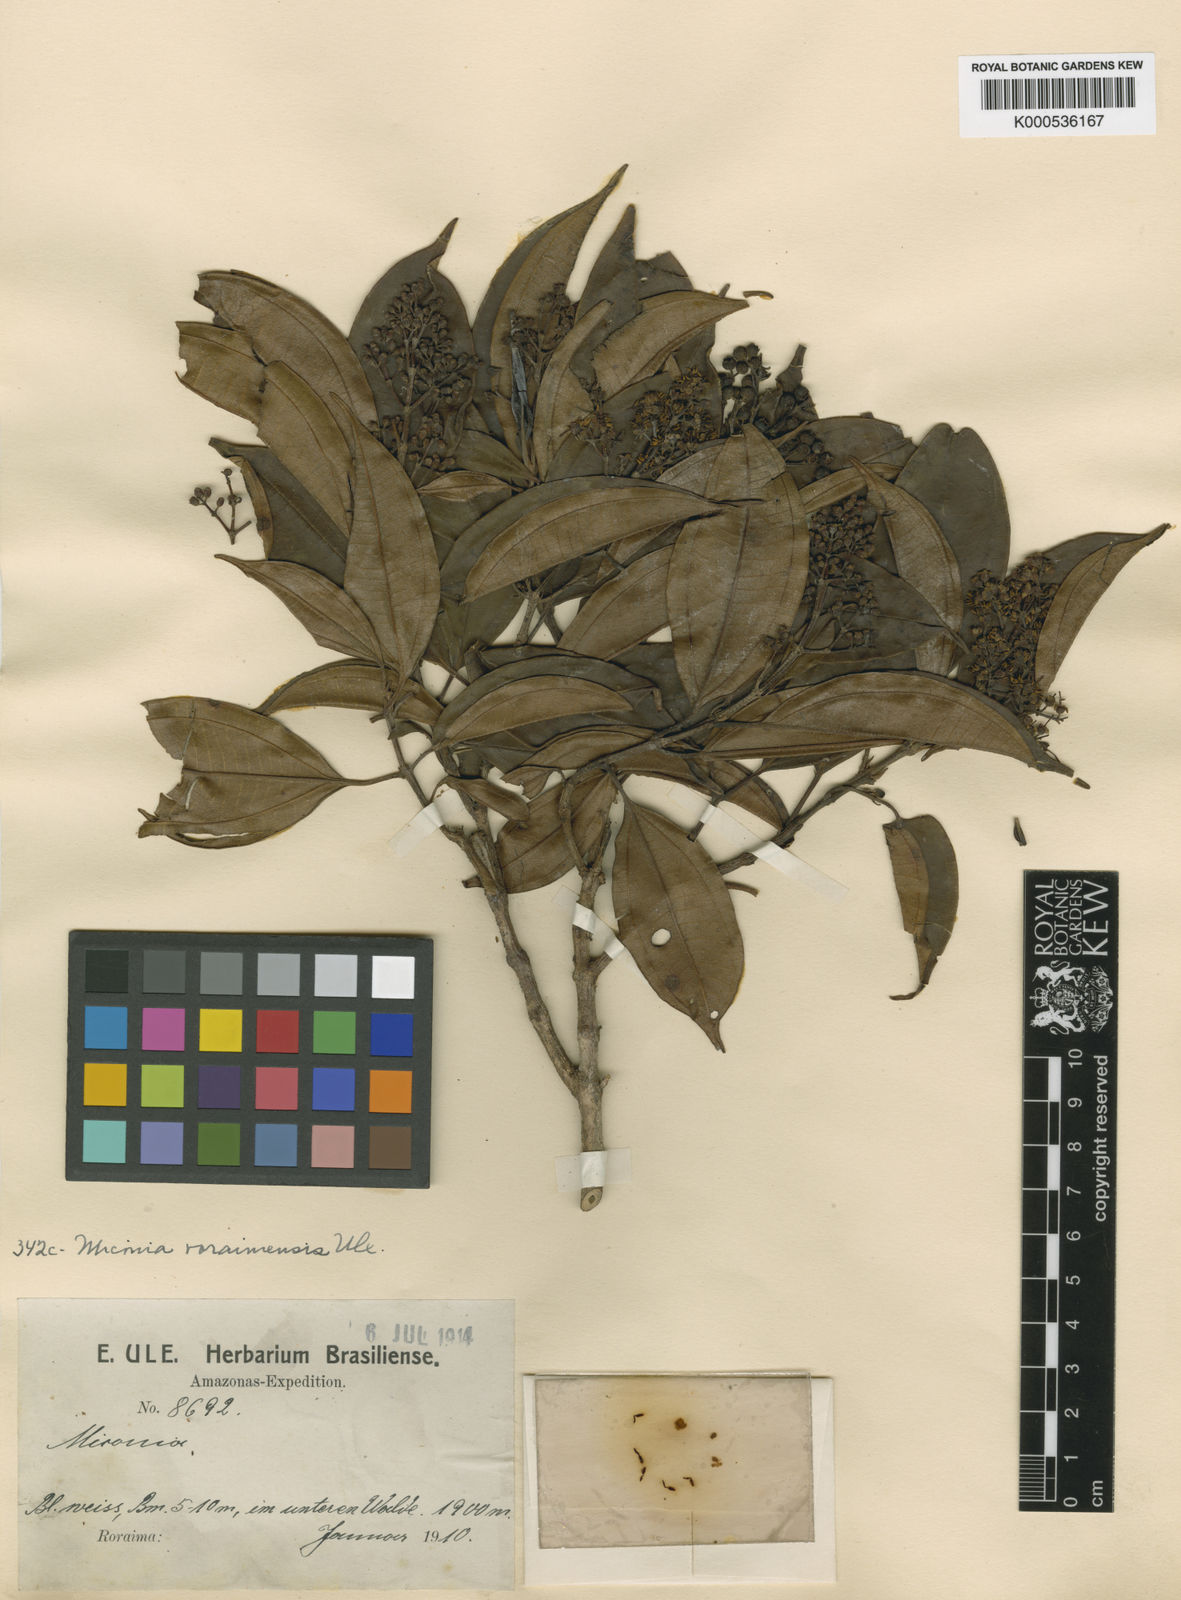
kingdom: Plantae
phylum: Tracheophyta
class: Magnoliopsida
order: Myrtales
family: Melastomataceae
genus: Miconia
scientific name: Miconia roraimensis
